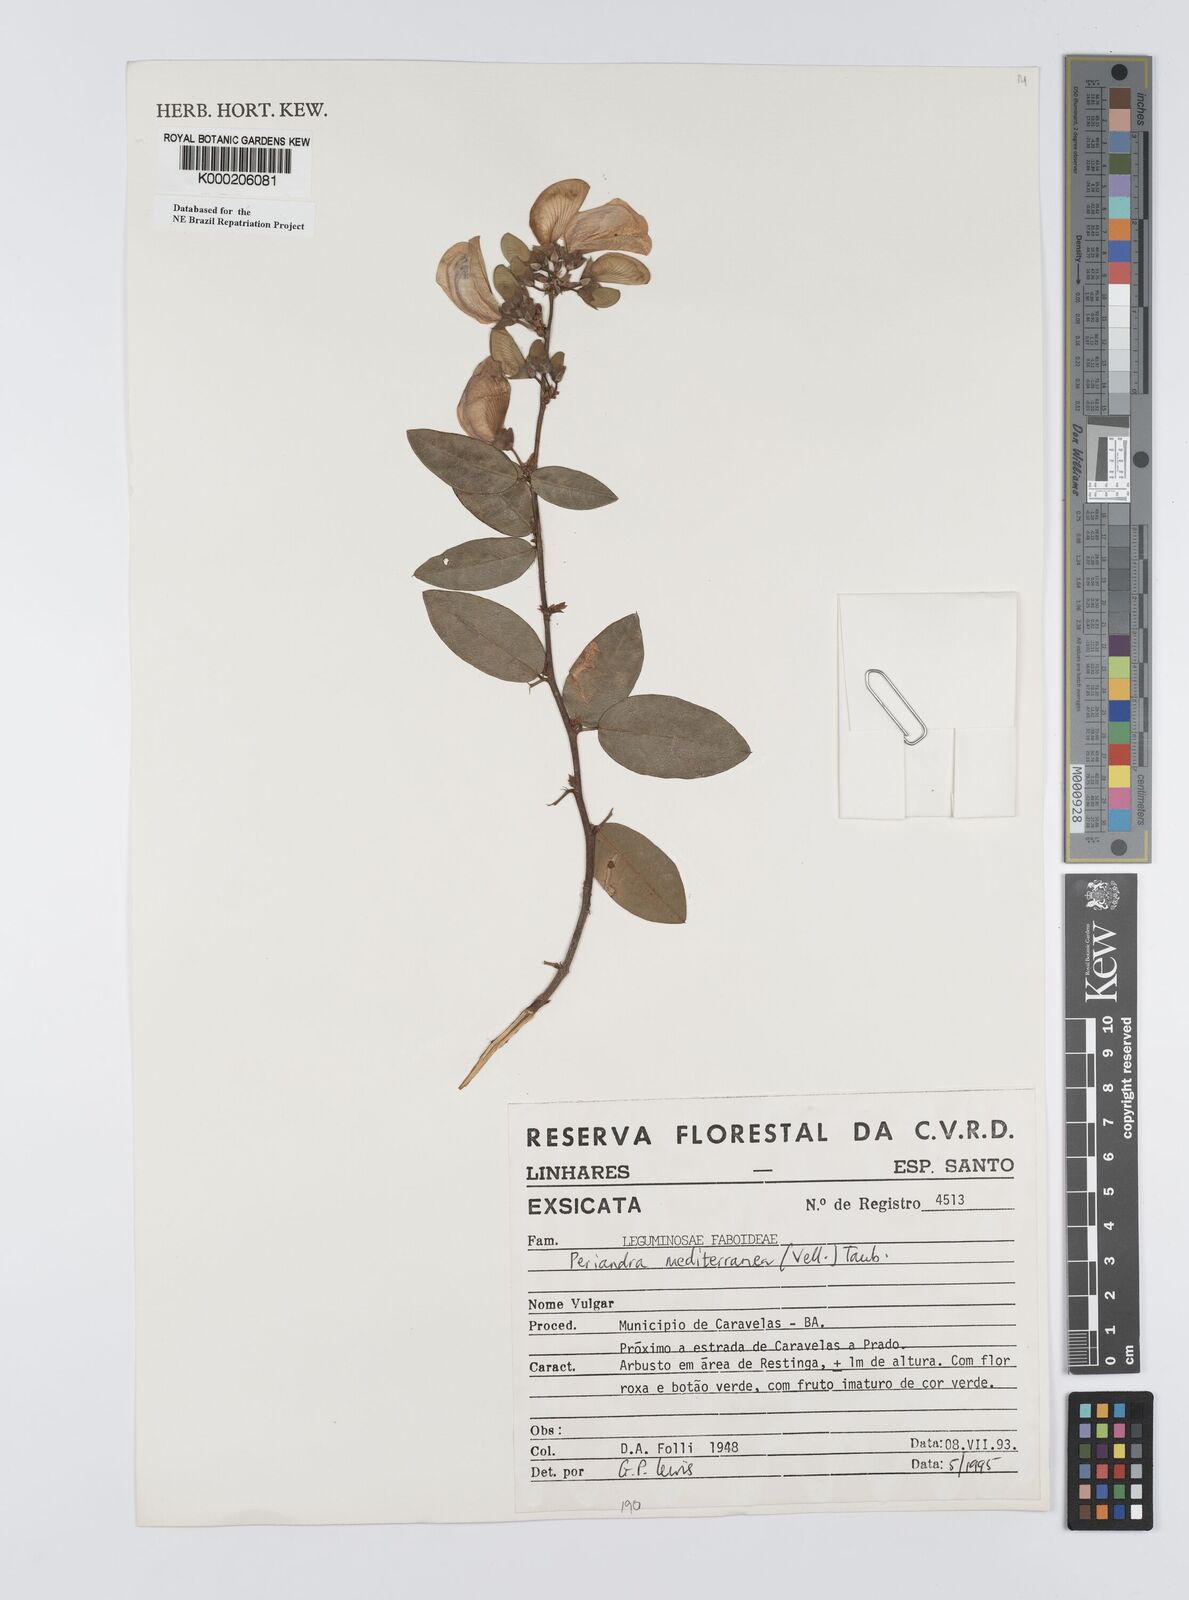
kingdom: Plantae
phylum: Tracheophyta
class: Magnoliopsida
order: Fabales
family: Fabaceae
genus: Periandra
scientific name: Periandra mediterranea
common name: Brazilian licorice
